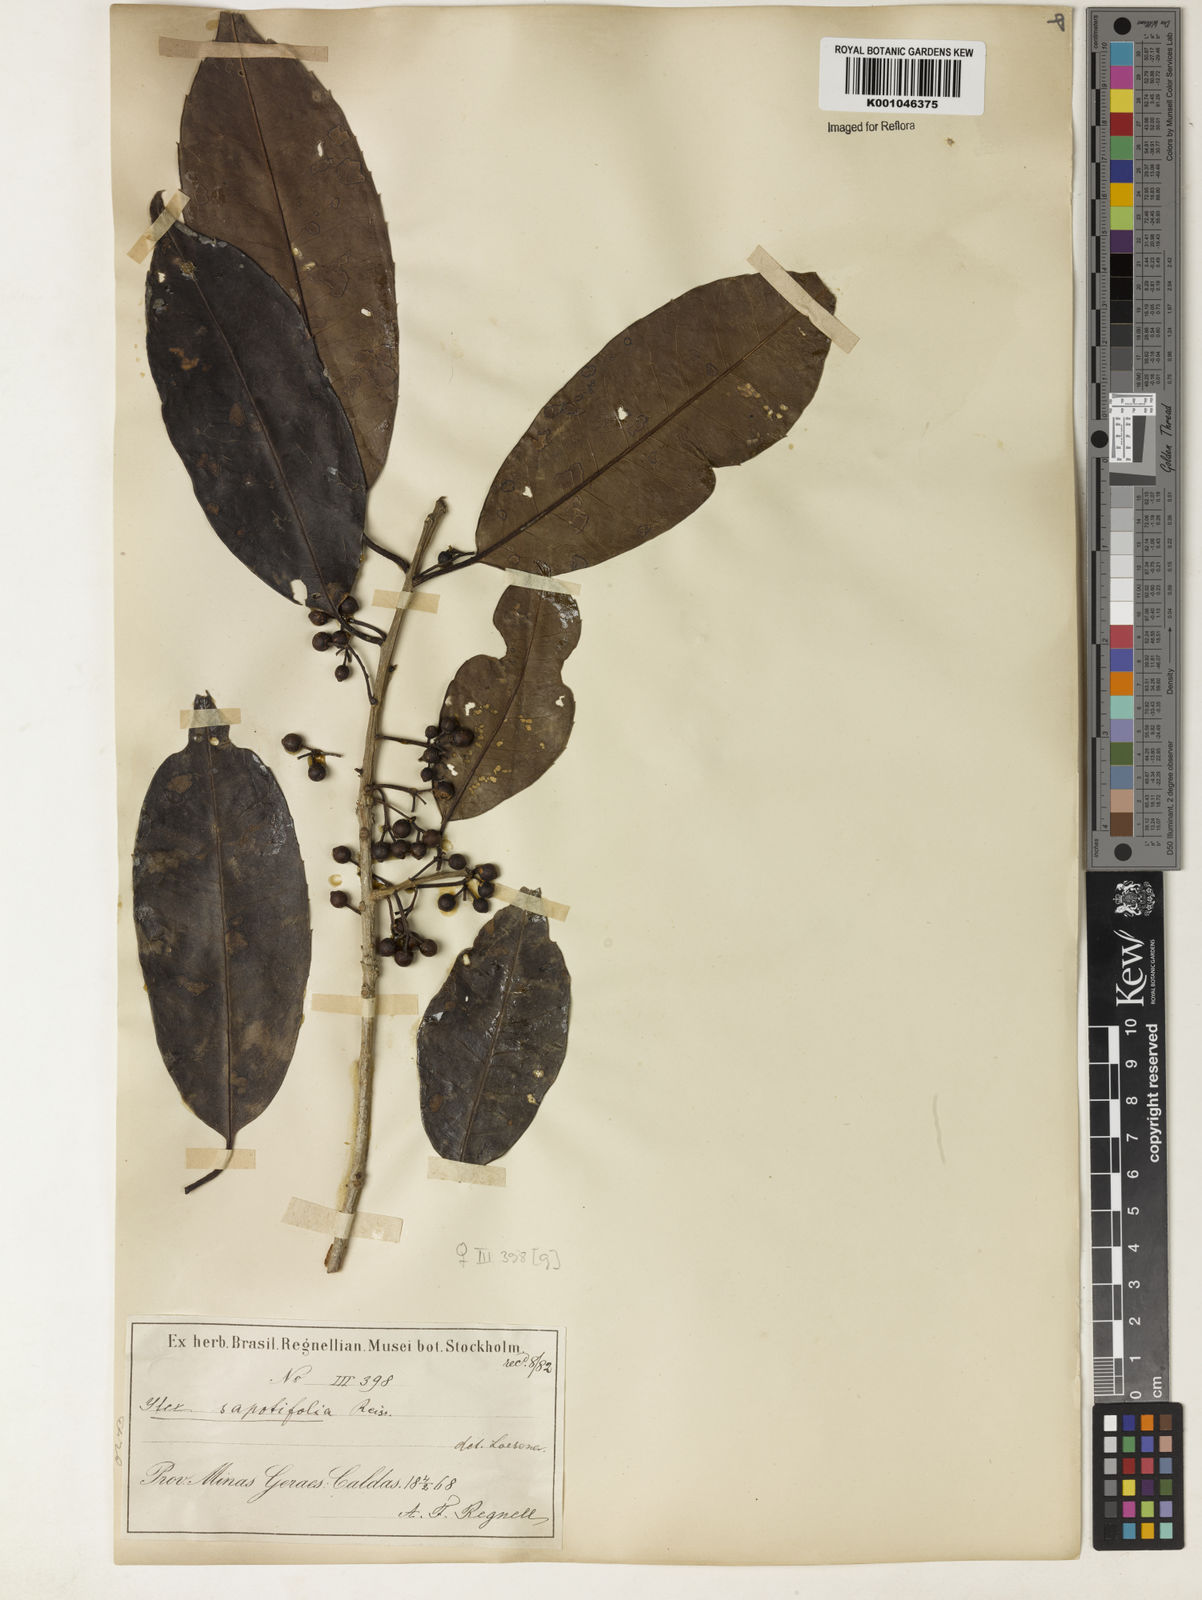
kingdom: Plantae
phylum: Tracheophyta
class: Magnoliopsida
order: Aquifoliales
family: Aquifoliaceae
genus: Ilex
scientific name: Ilex sapotifolia
